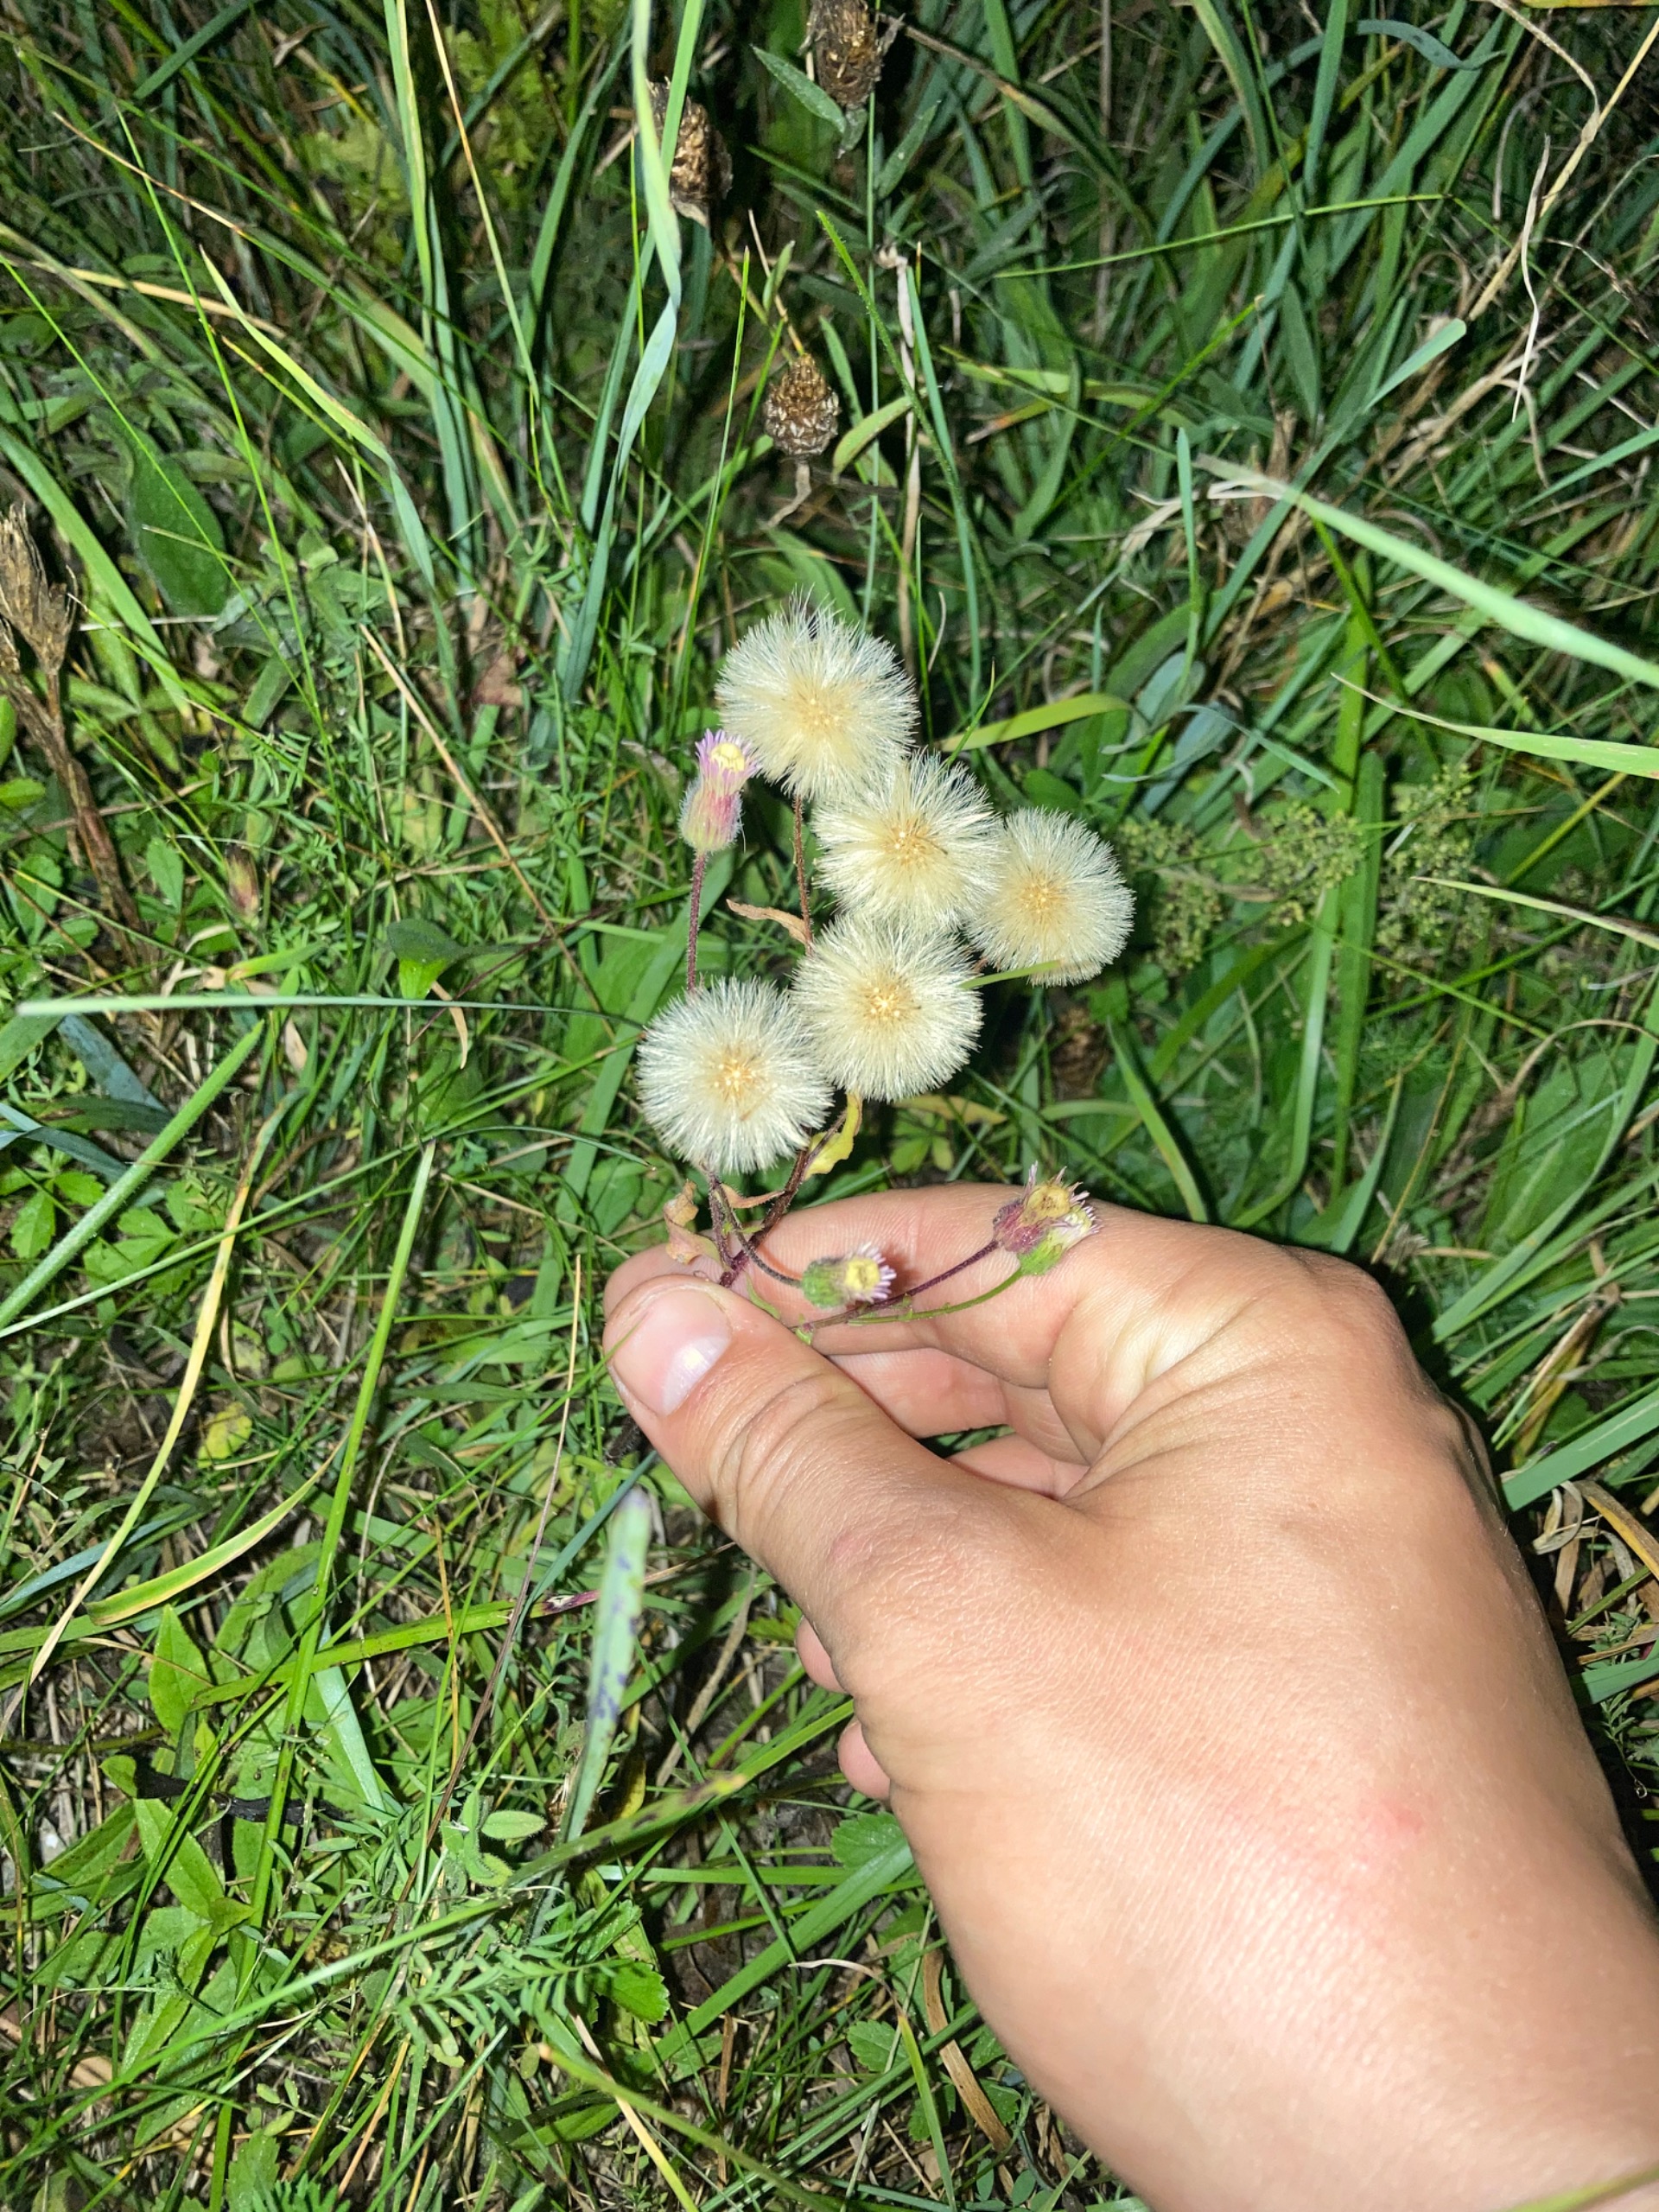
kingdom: Plantae
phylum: Tracheophyta
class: Magnoliopsida
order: Asterales
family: Asteraceae
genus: Erigeron
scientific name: Erigeron acris
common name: Bitter bakkestjerne
